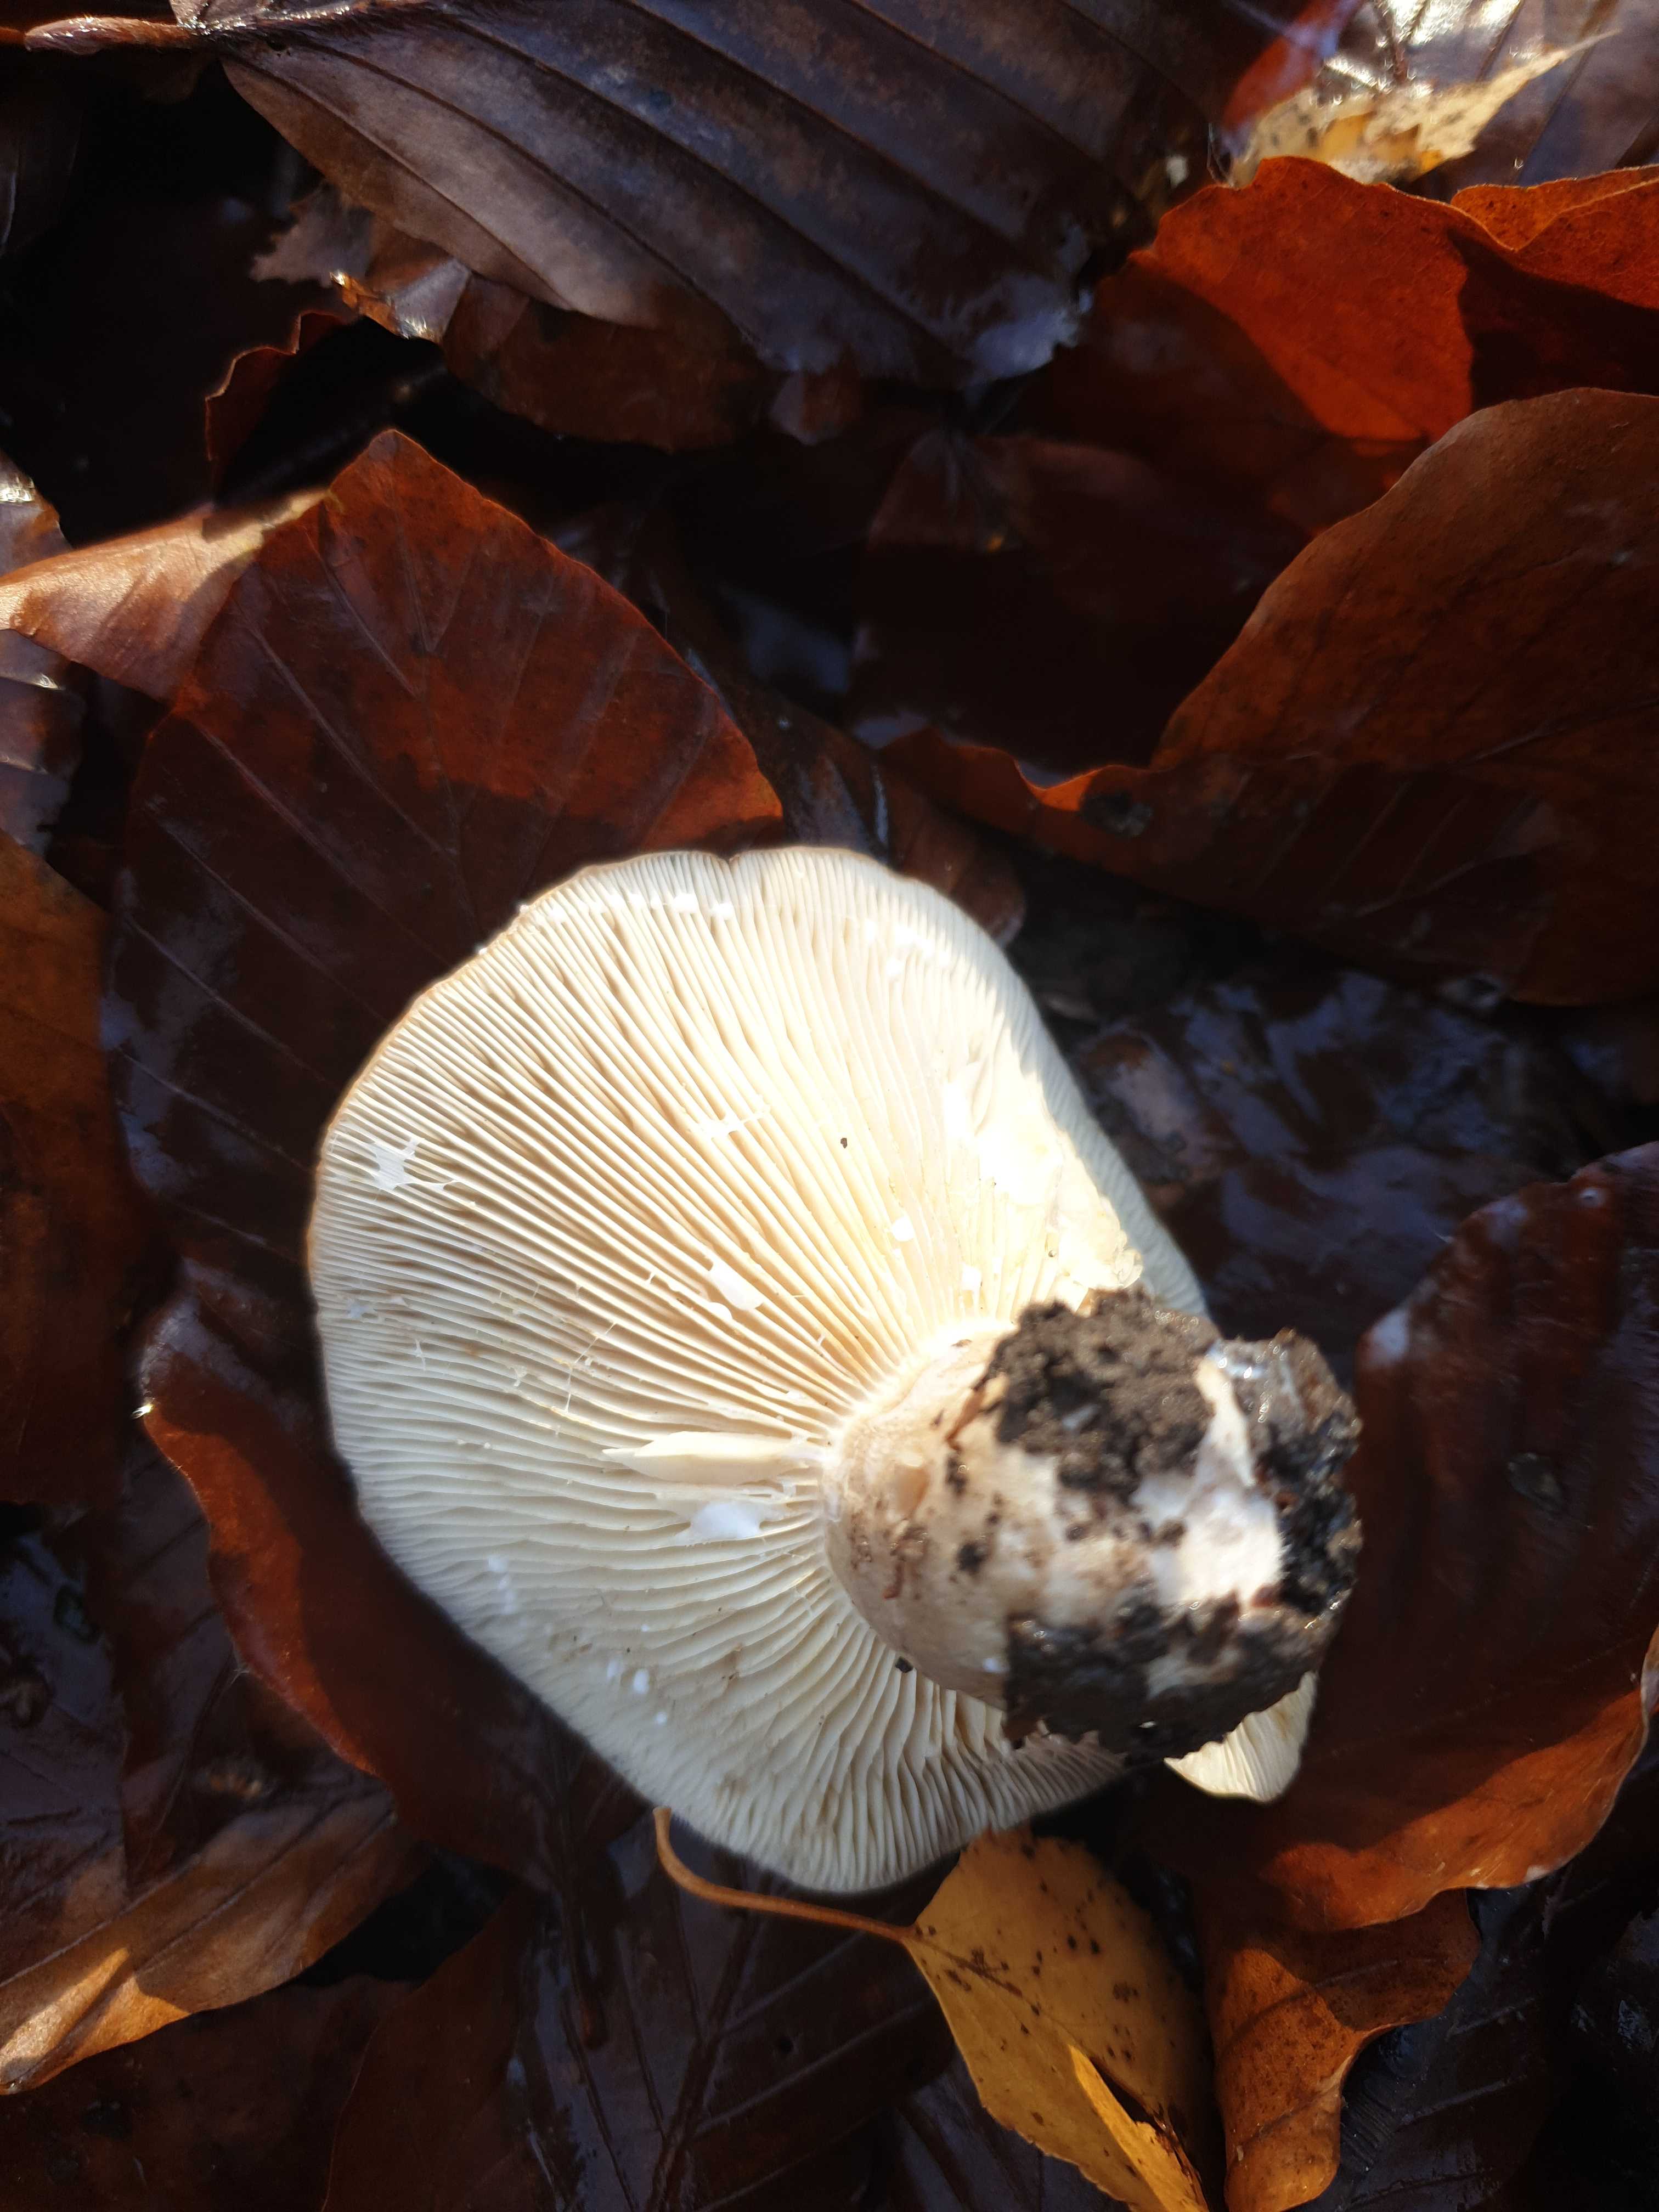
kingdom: Fungi
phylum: Basidiomycota
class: Agaricomycetes
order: Russulales
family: Russulaceae
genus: Lactarius
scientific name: Lactarius fluens
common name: lysrandet mælkehat
